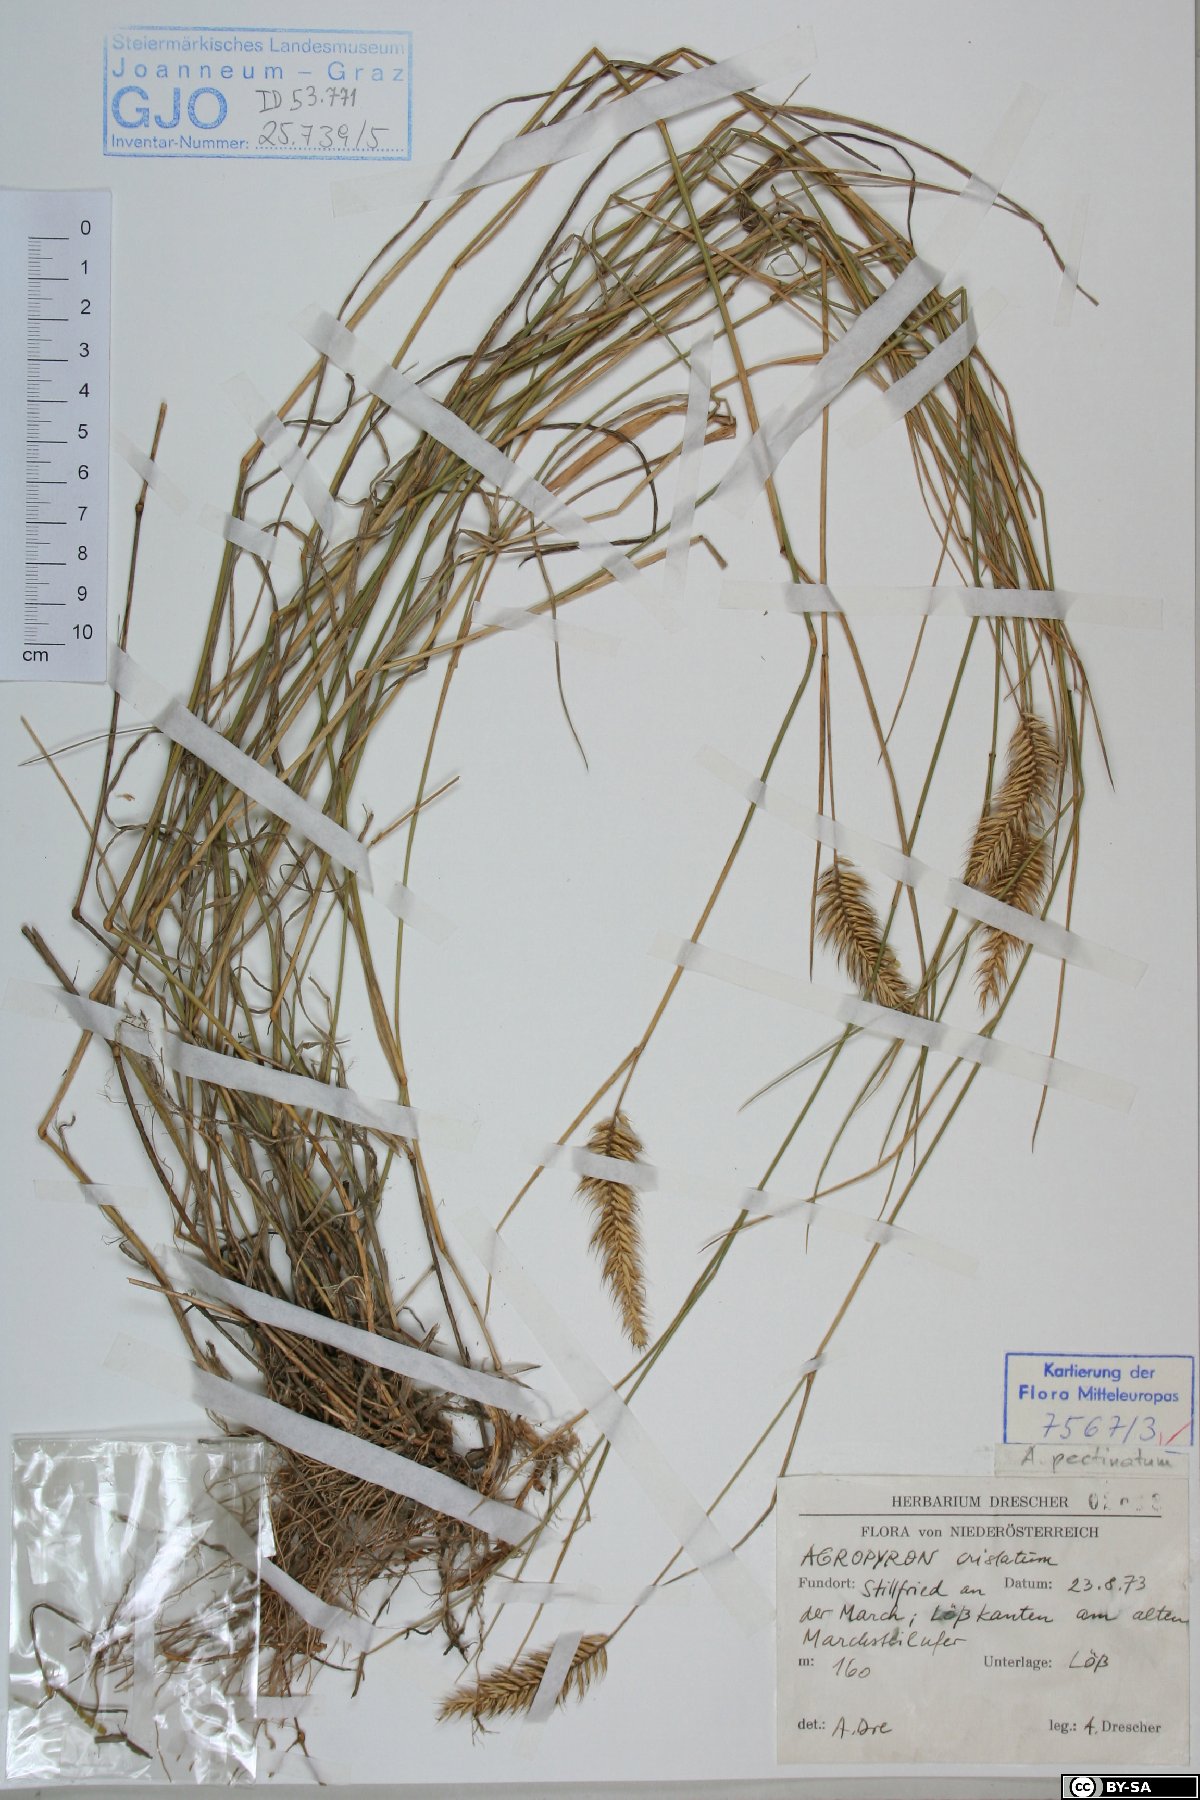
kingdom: Plantae
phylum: Tracheophyta
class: Liliopsida
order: Poales
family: Poaceae
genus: Agropyron
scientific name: Agropyron cristatum
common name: Crested wheatgrass
